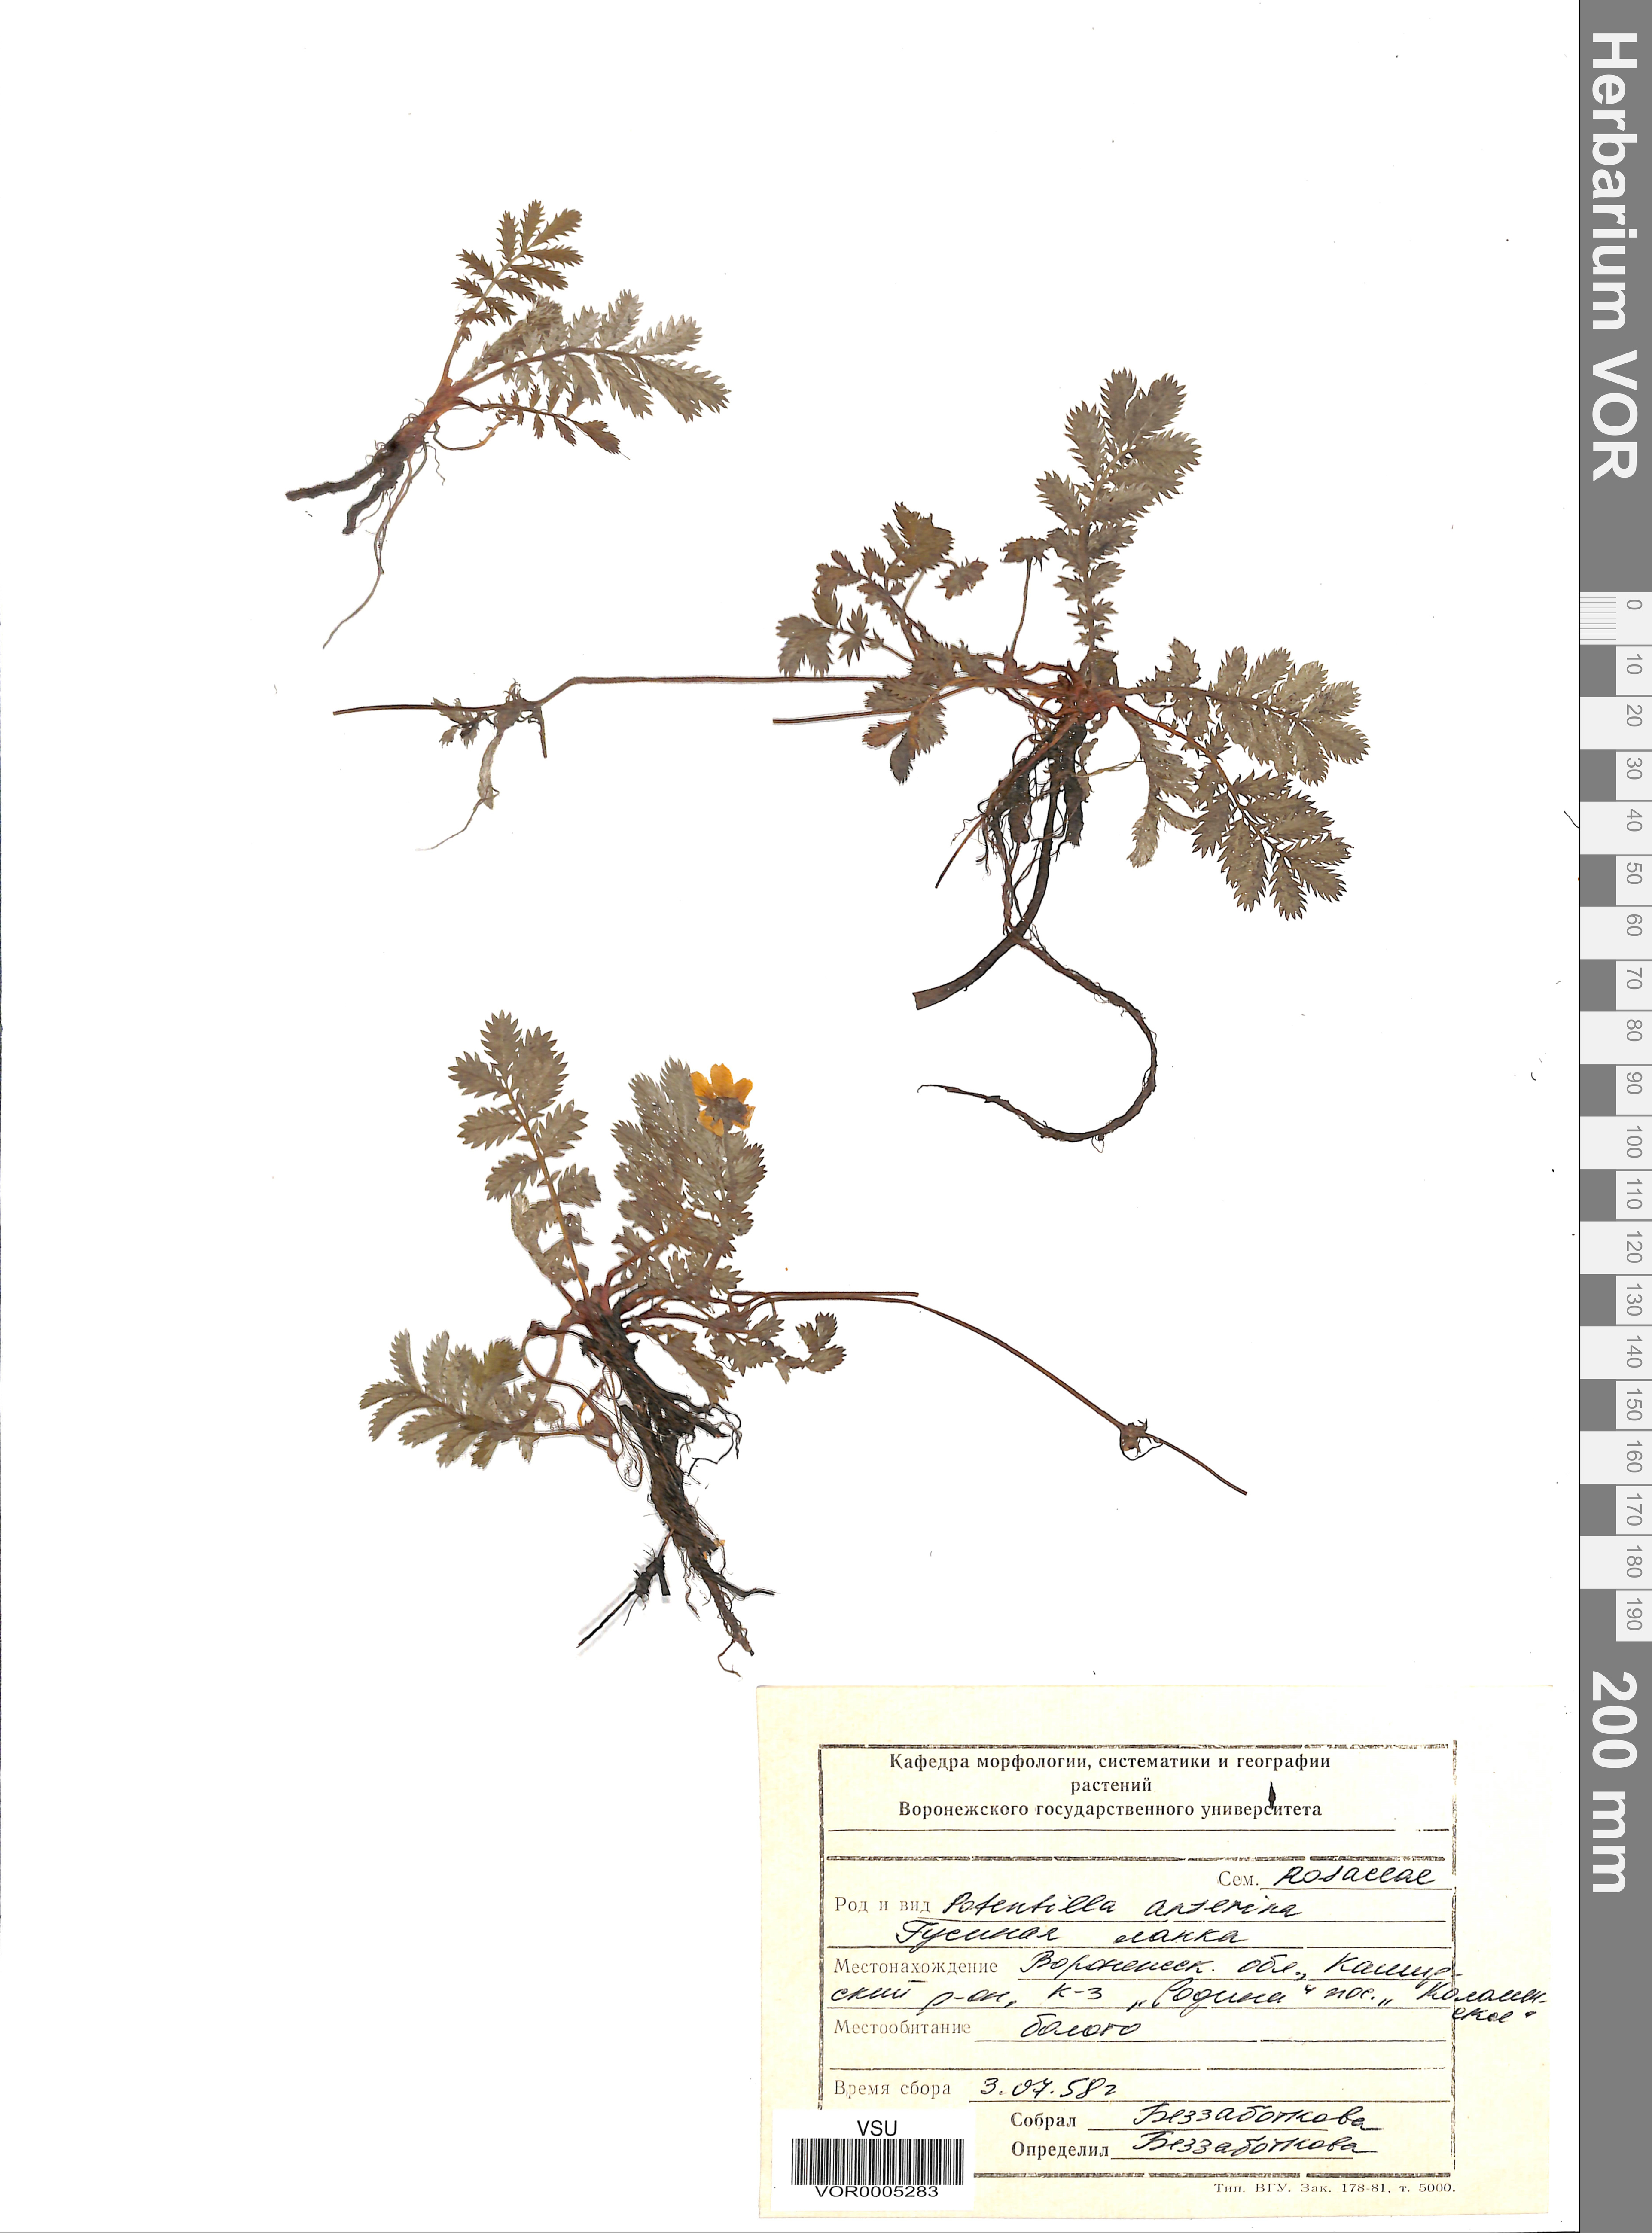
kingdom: Plantae
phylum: Tracheophyta
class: Magnoliopsida
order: Rosales
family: Rosaceae
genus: Argentina
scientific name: Argentina anserina
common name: Common silverweed
